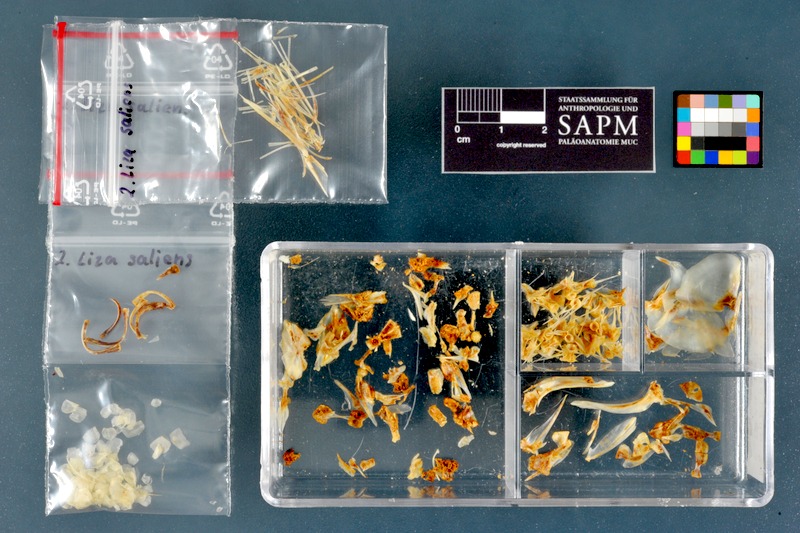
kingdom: Animalia
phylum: Chordata
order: Mugiliformes
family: Mugilidae
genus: Chelon
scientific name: Chelon saliens
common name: Leaping mullet
